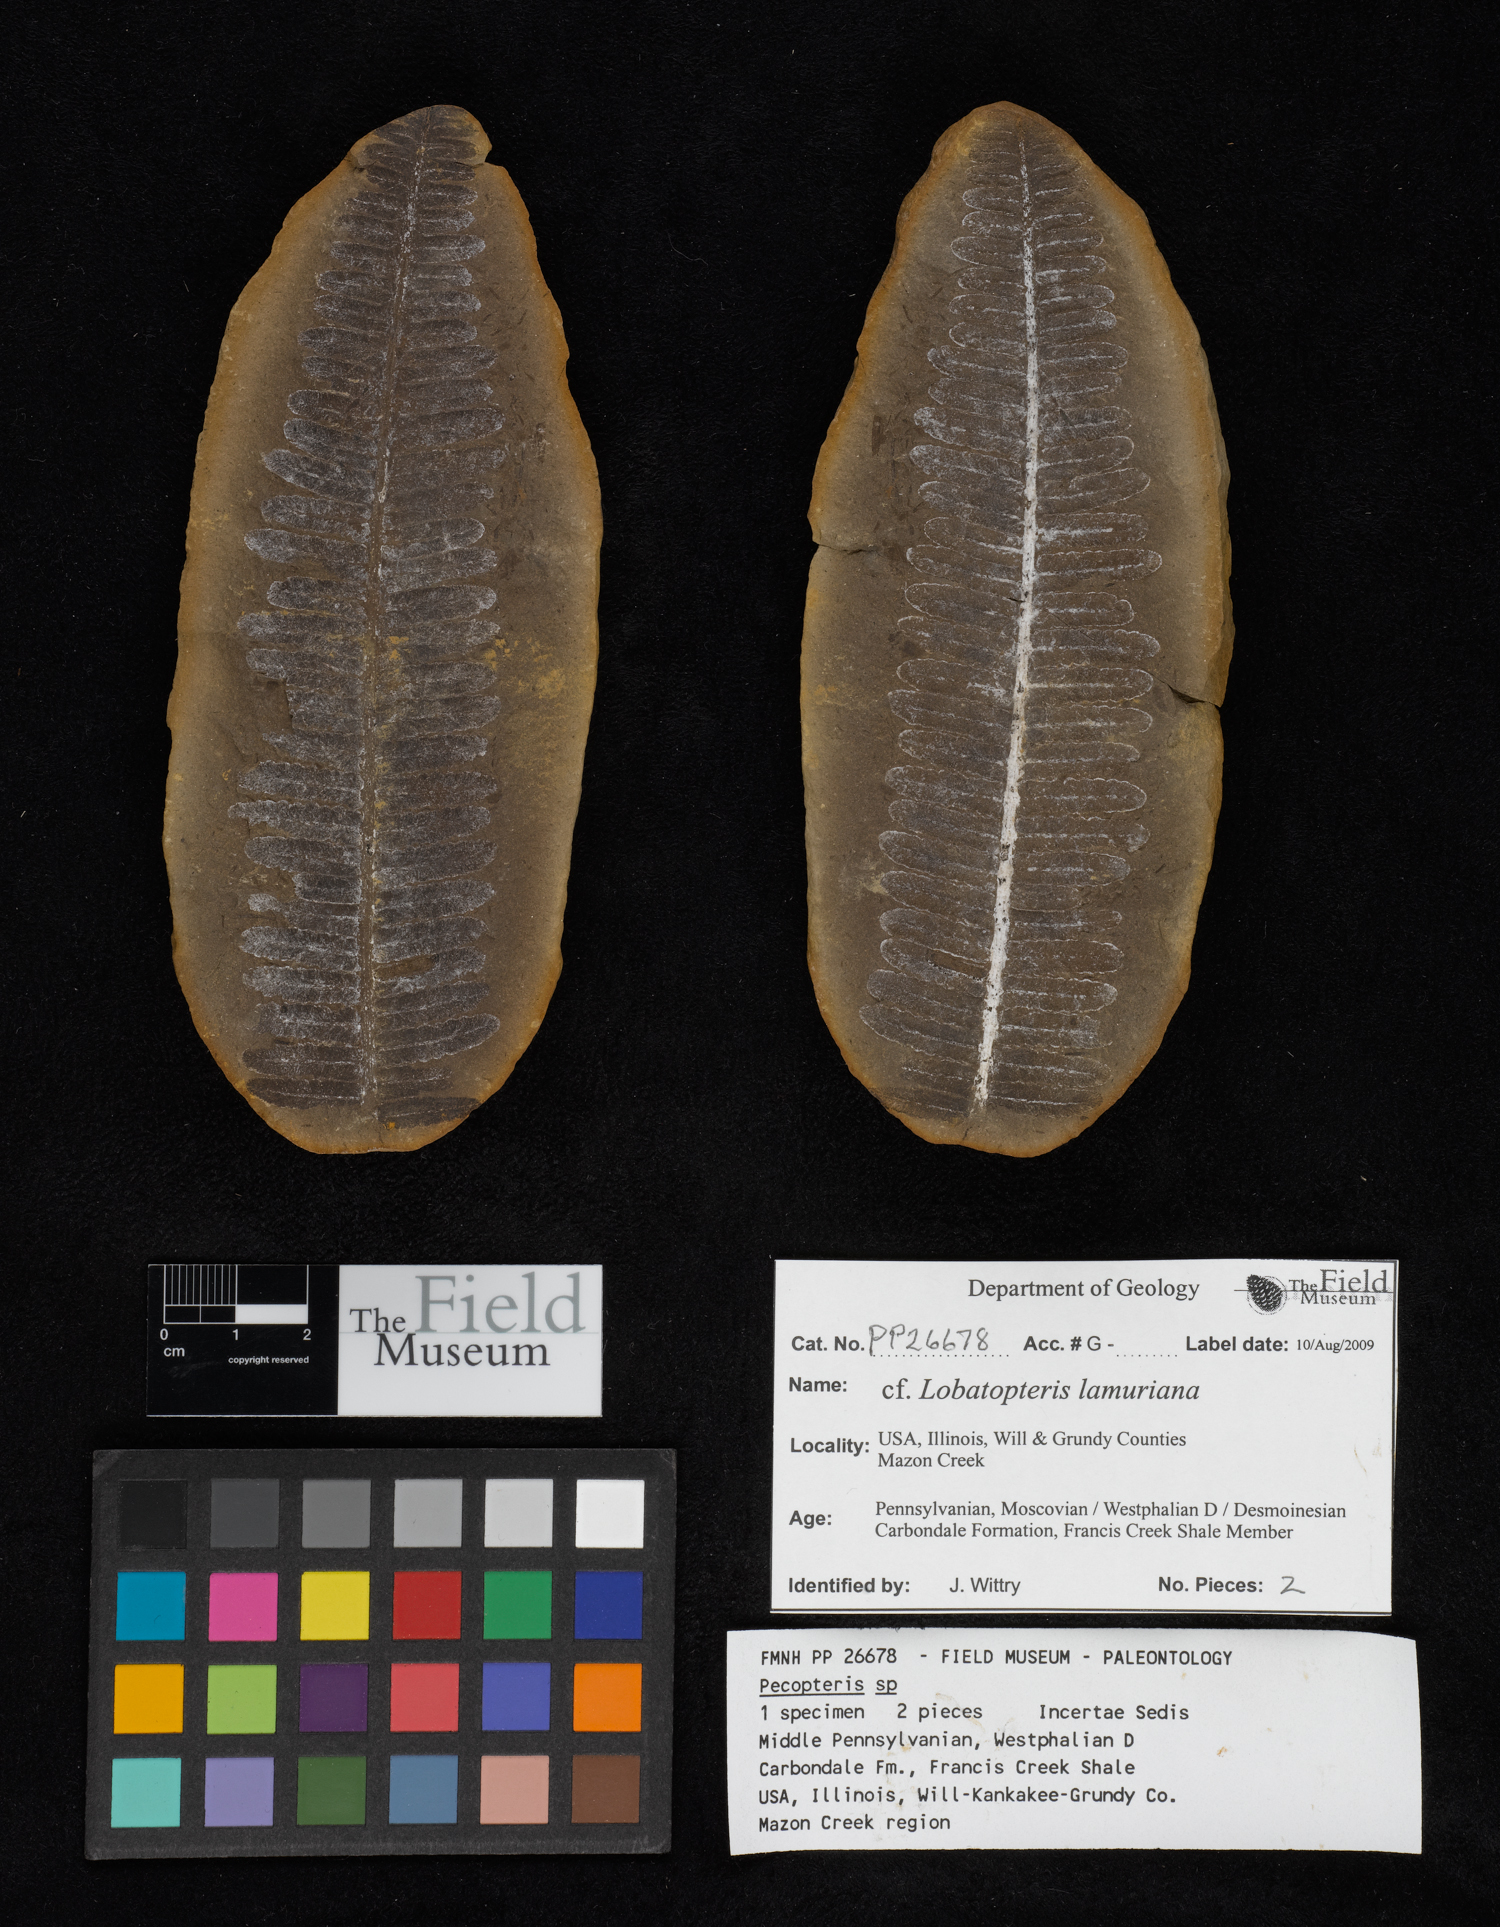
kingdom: Plantae
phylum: Tracheophyta
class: Polypodiopsida
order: Marattiales
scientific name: Marattiales
